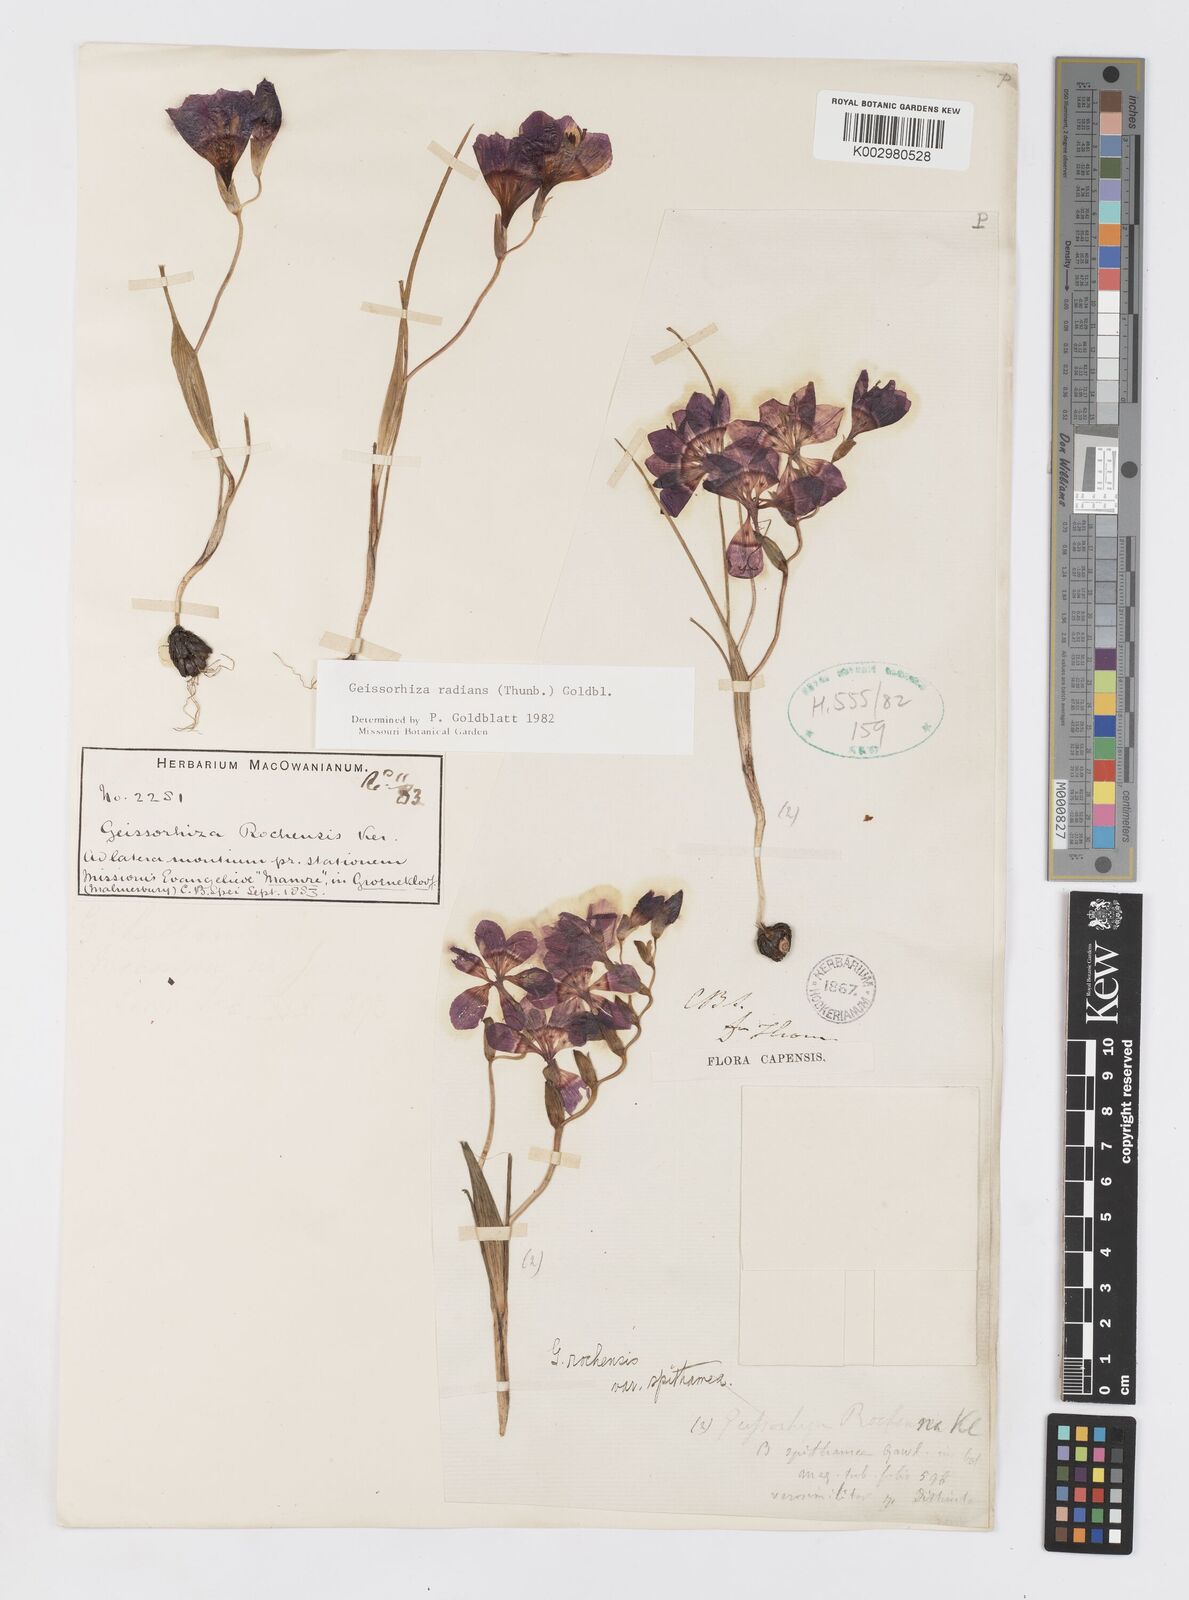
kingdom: Plantae
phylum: Tracheophyta
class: Liliopsida
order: Asparagales
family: Iridaceae
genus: Geissorhiza
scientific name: Geissorhiza radians
